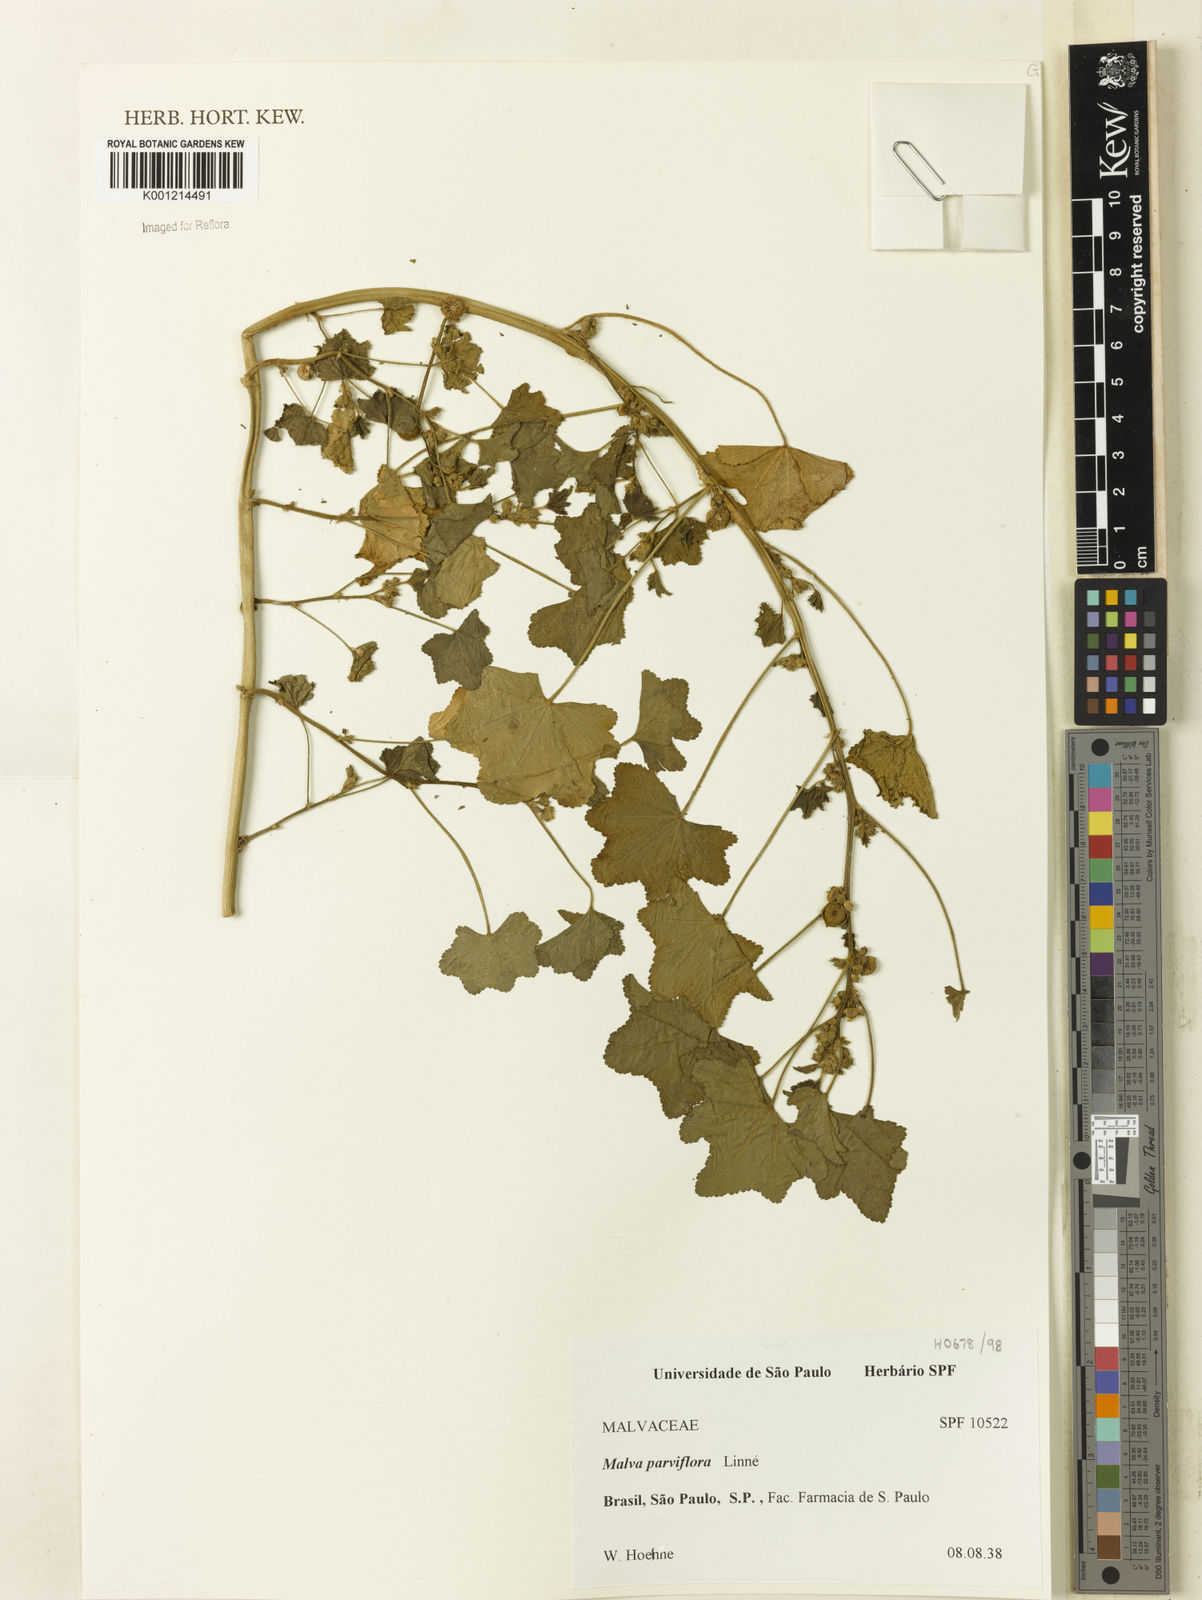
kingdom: Plantae
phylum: Tracheophyta
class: Magnoliopsida
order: Malvales
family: Malvaceae
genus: Malva
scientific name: Malva parviflora
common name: Least mallow
